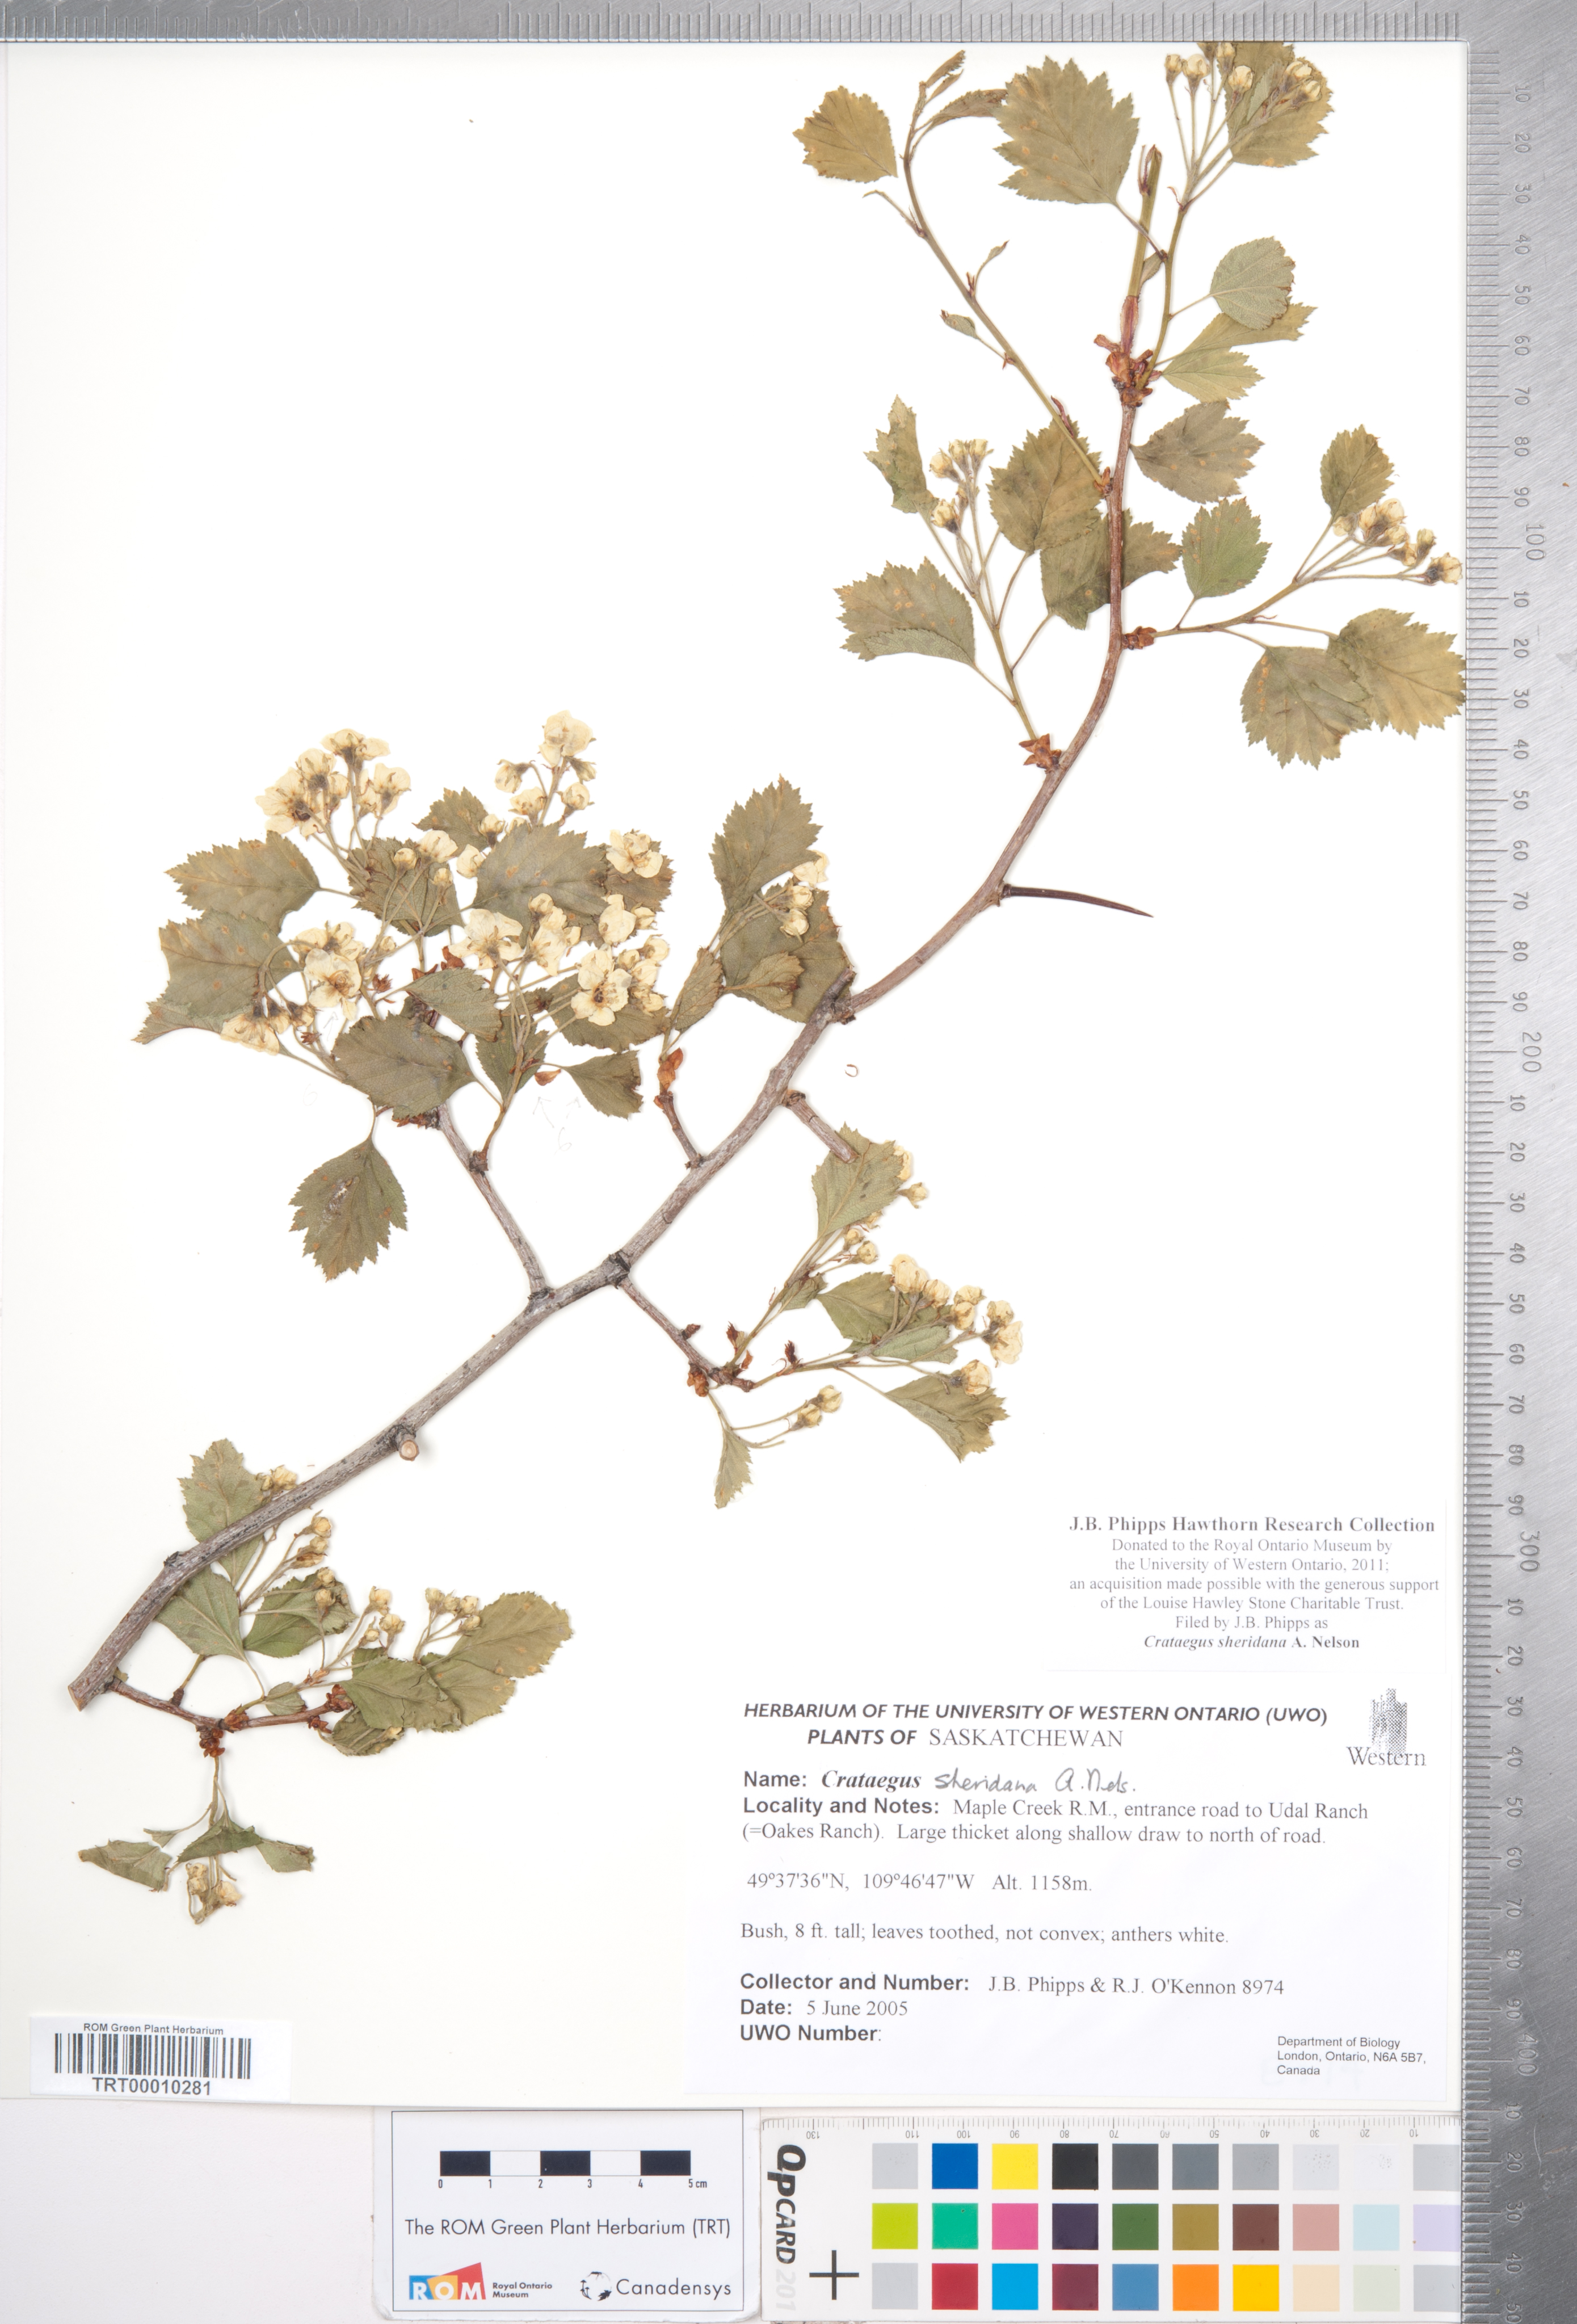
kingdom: Plantae
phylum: Tracheophyta
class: Magnoliopsida
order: Rosales
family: Rosaceae
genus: Crataegus
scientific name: Crataegus chrysocarpa
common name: Fire-berry hawthorn
